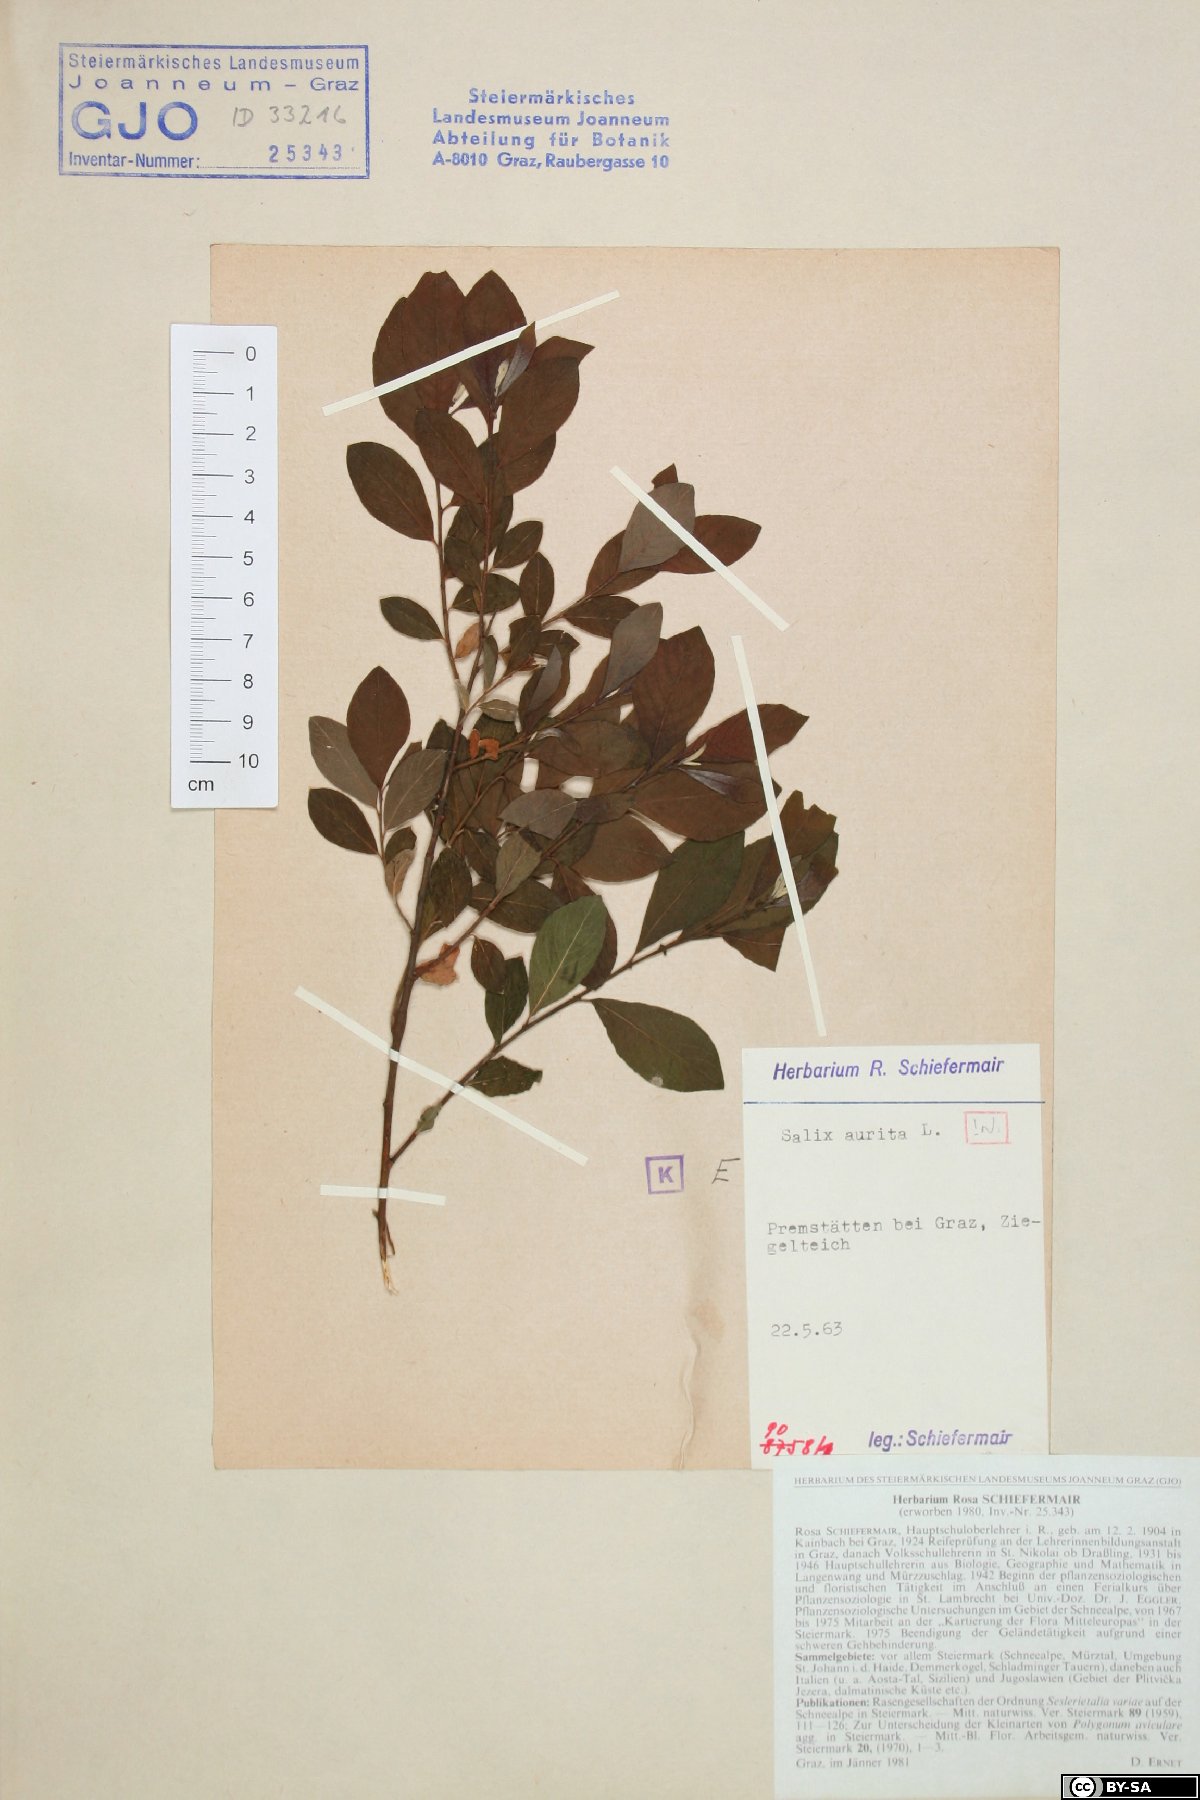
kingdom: Plantae
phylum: Tracheophyta
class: Magnoliopsida
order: Malpighiales
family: Salicaceae
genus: Salix
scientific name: Salix aurita
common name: Eared willow
